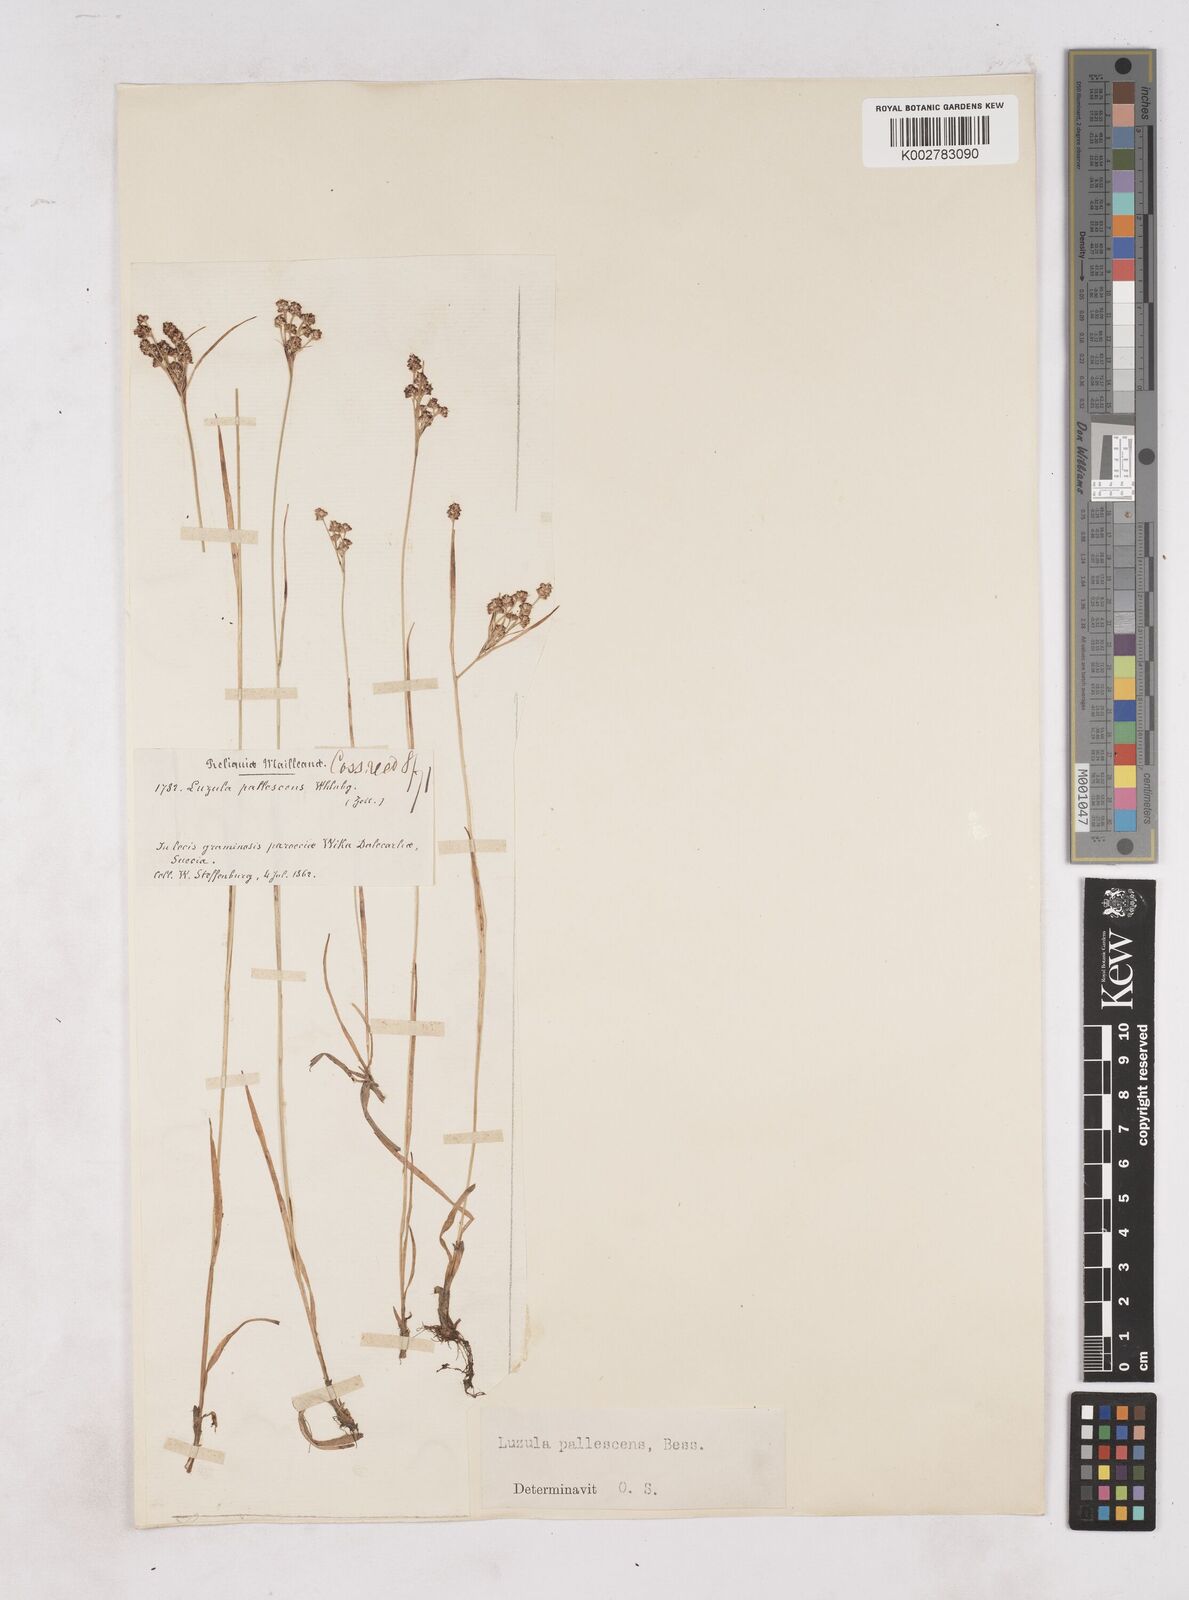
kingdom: Plantae
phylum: Tracheophyta
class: Liliopsida
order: Poales
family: Juncaceae
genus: Luzula
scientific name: Luzula pallescens
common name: Fen wood-rush
